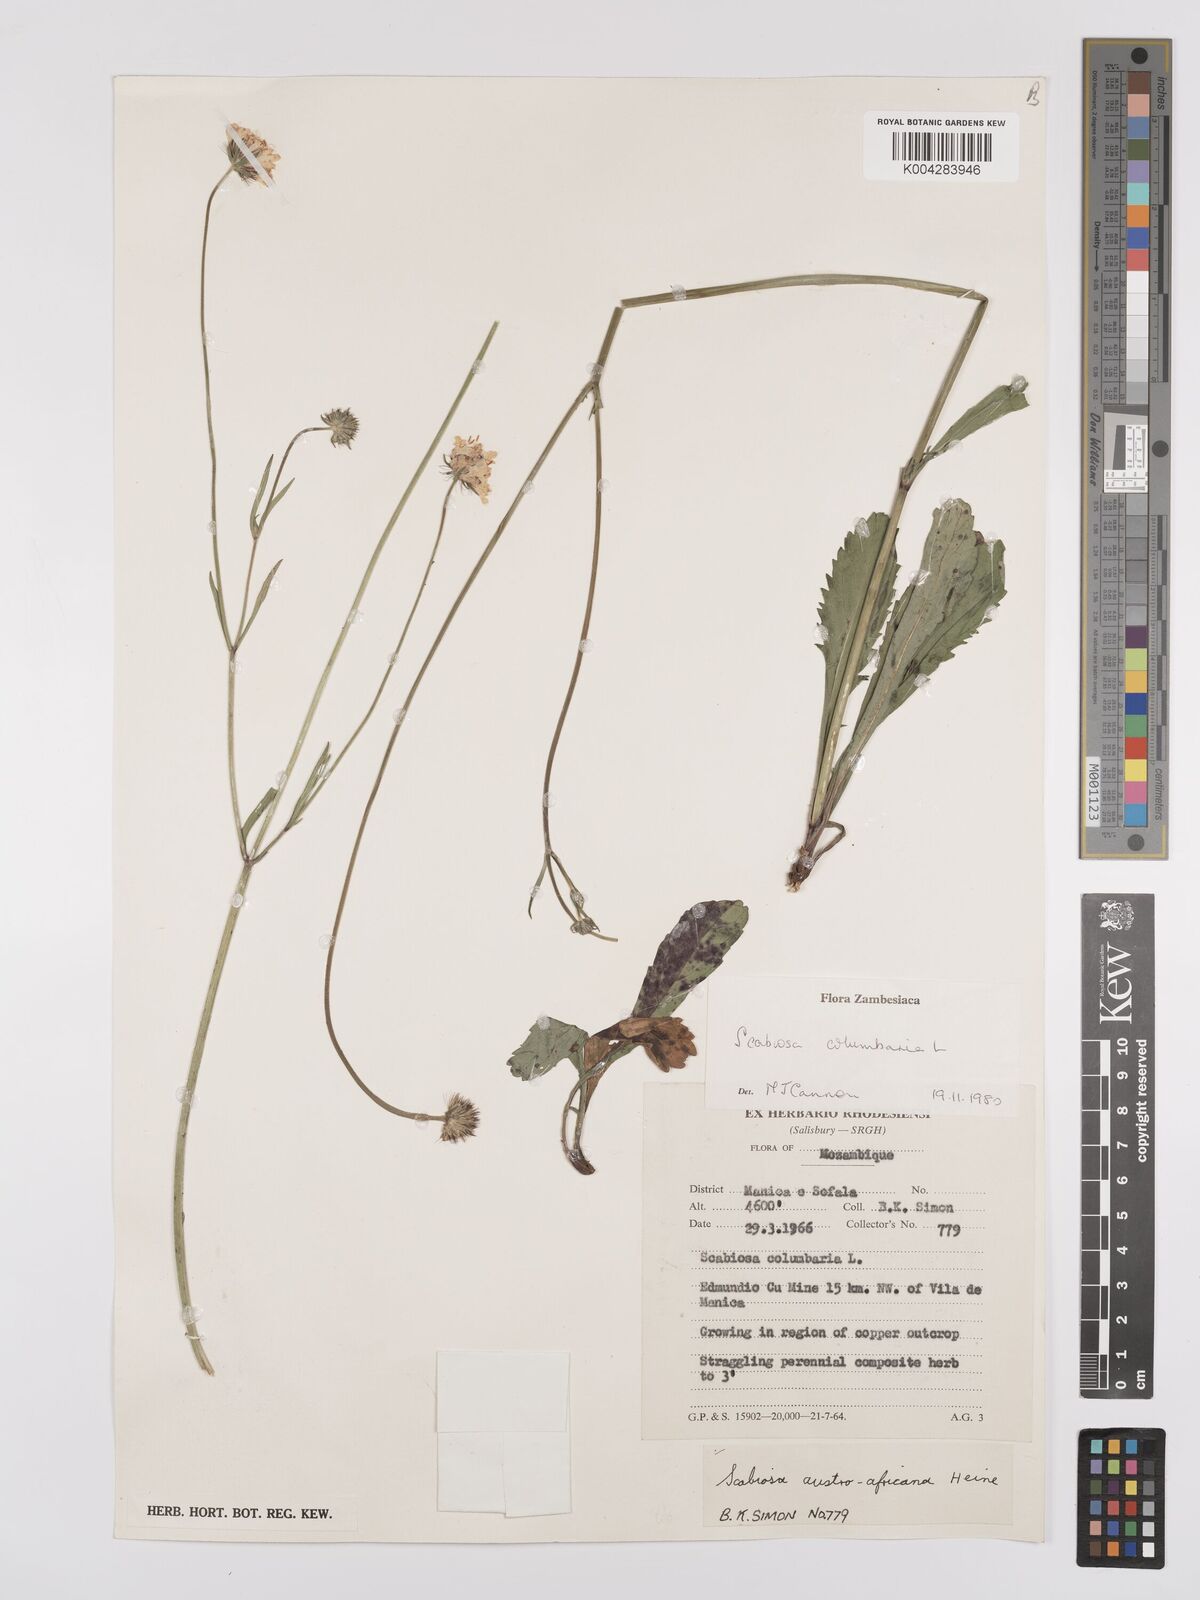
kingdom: Plantae
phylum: Tracheophyta
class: Magnoliopsida
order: Dipsacales
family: Caprifoliaceae
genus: Scabiosa
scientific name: Scabiosa austroafricana
